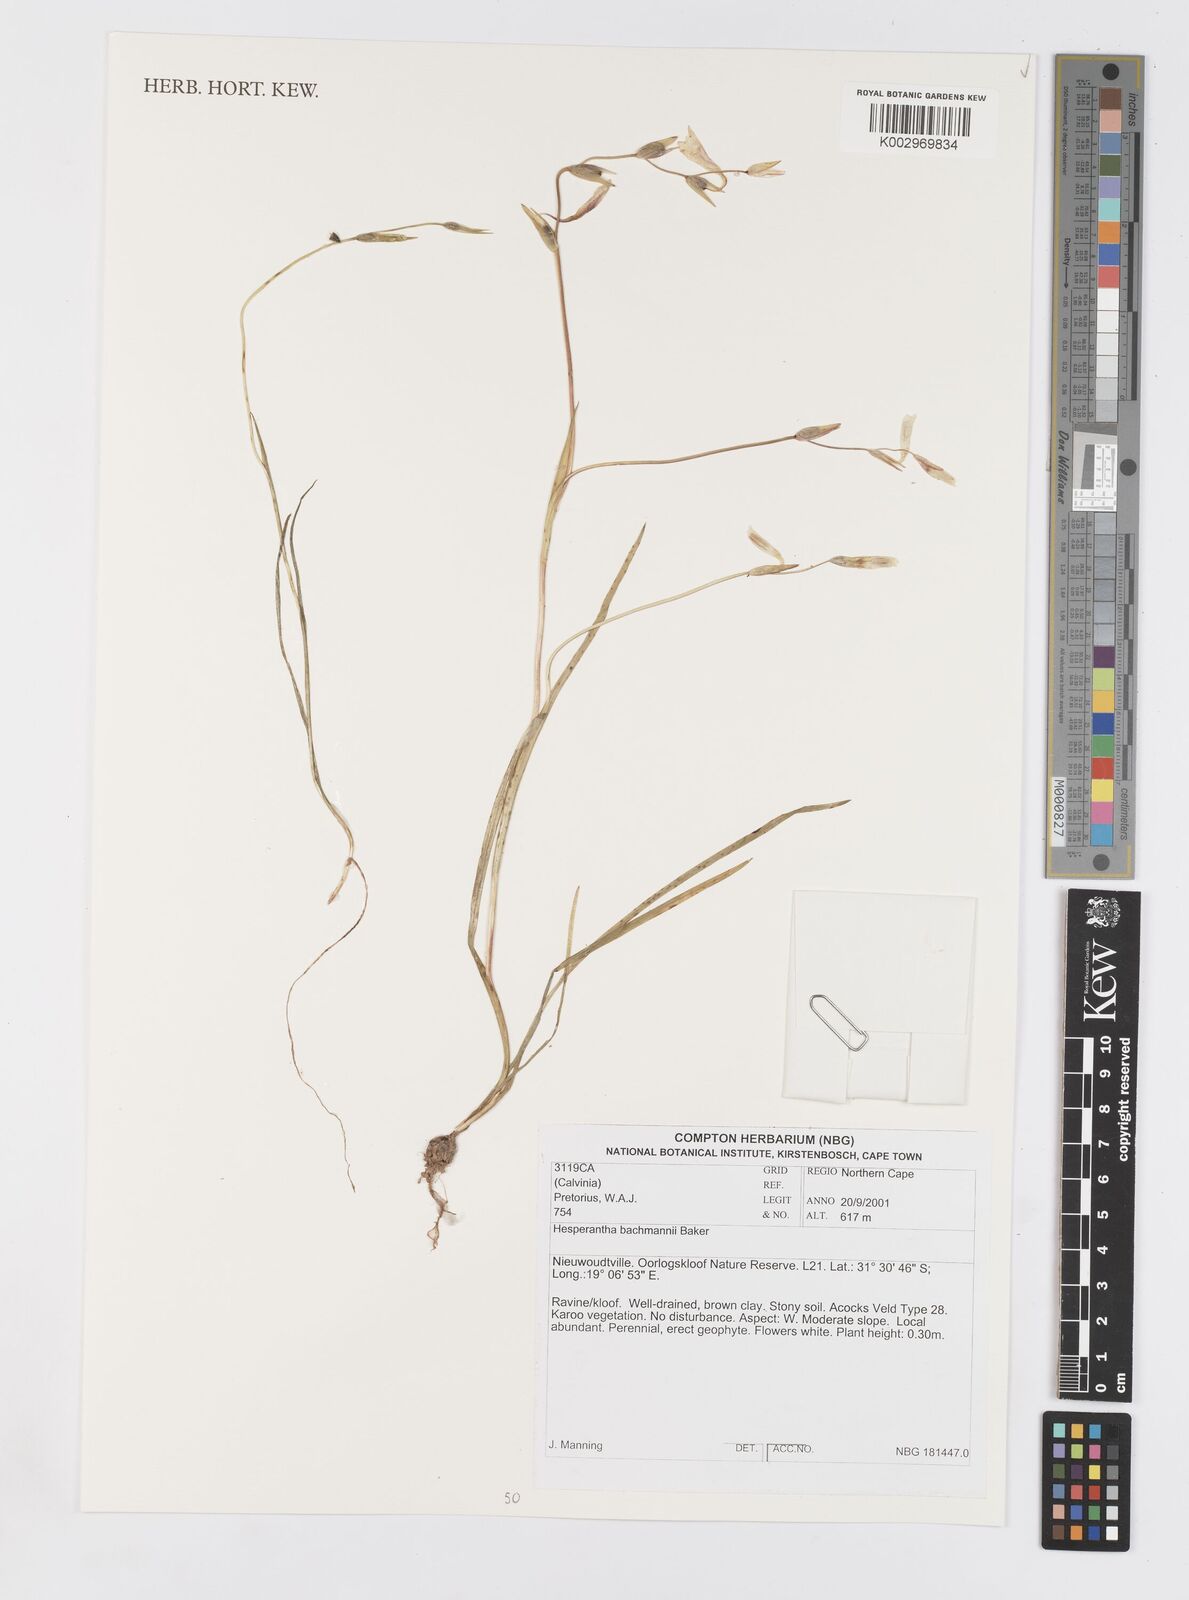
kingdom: Plantae
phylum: Tracheophyta
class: Liliopsida
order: Asparagales
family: Iridaceae
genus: Hesperantha
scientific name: Hesperantha bachmannii
